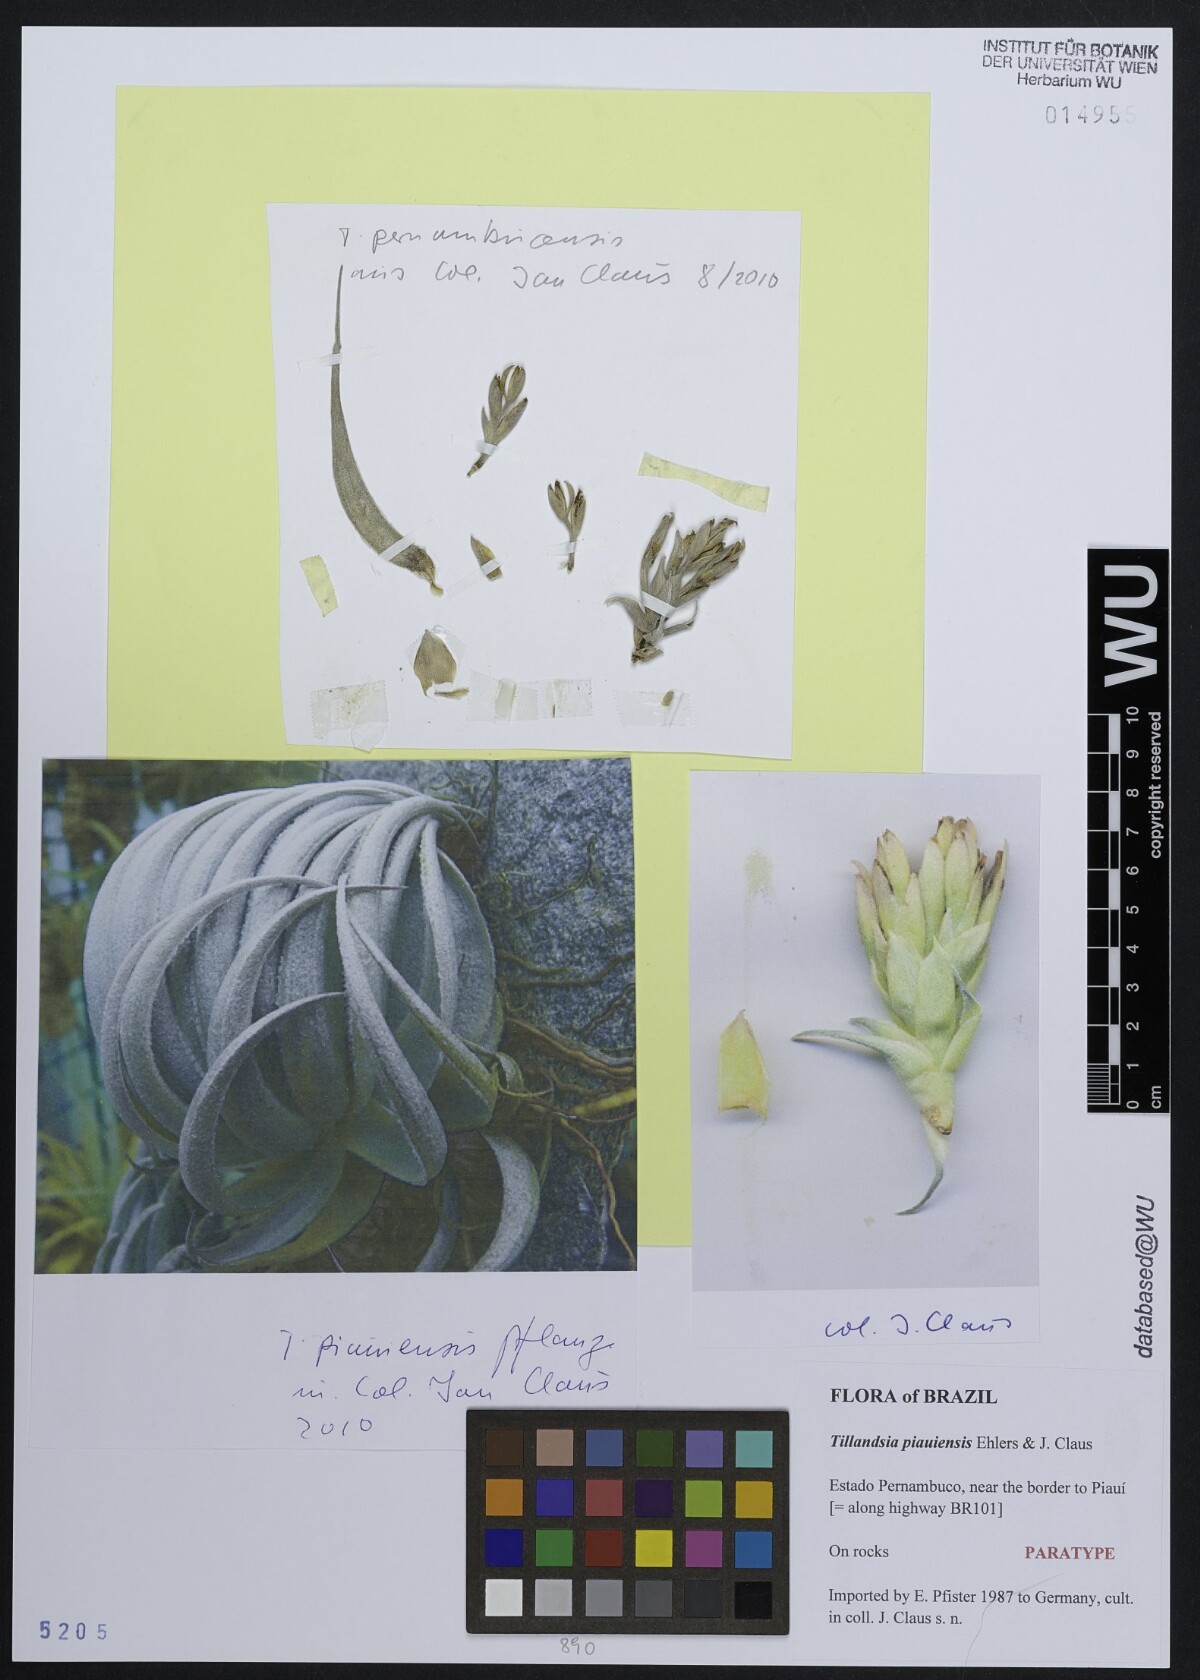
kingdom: Plantae
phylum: Tracheophyta
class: Liliopsida
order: Poales
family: Bromeliaceae
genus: Tillandsia
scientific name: Tillandsia piauiensis
